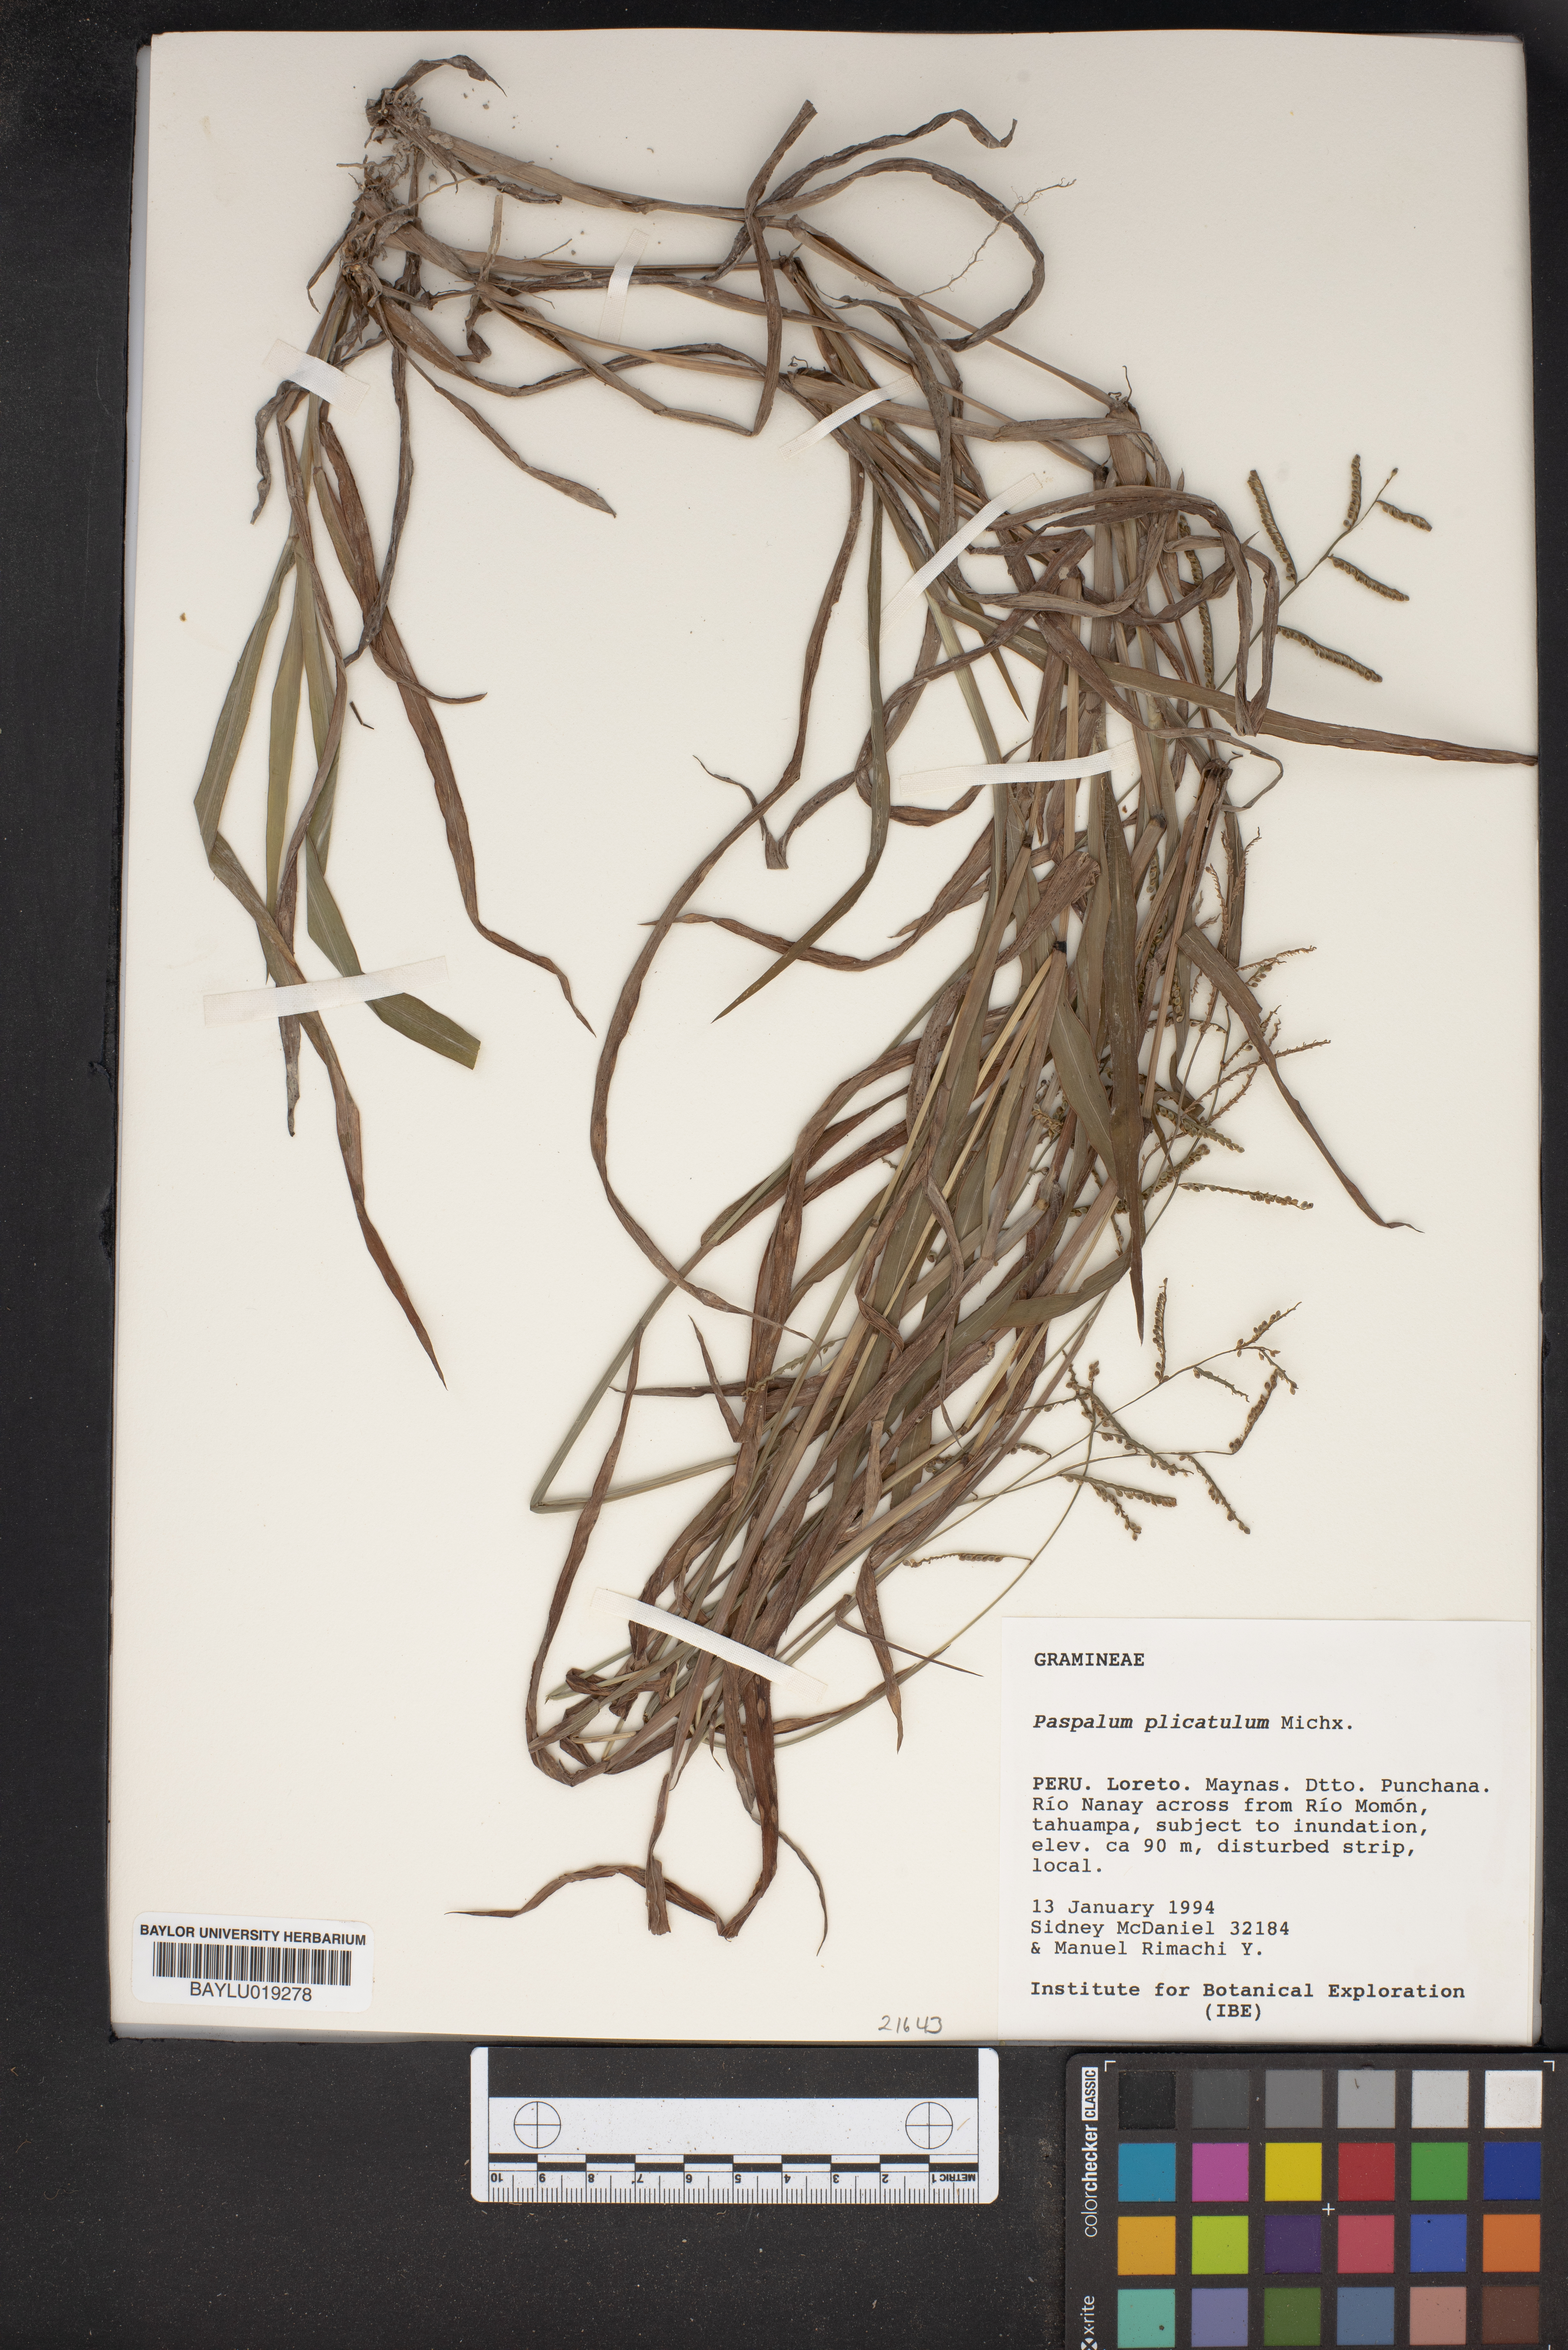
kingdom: Plantae
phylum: Tracheophyta
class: Liliopsida
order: Poales
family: Poaceae
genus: Paspalum
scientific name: Paspalum plicatulum
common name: Top paspalum
